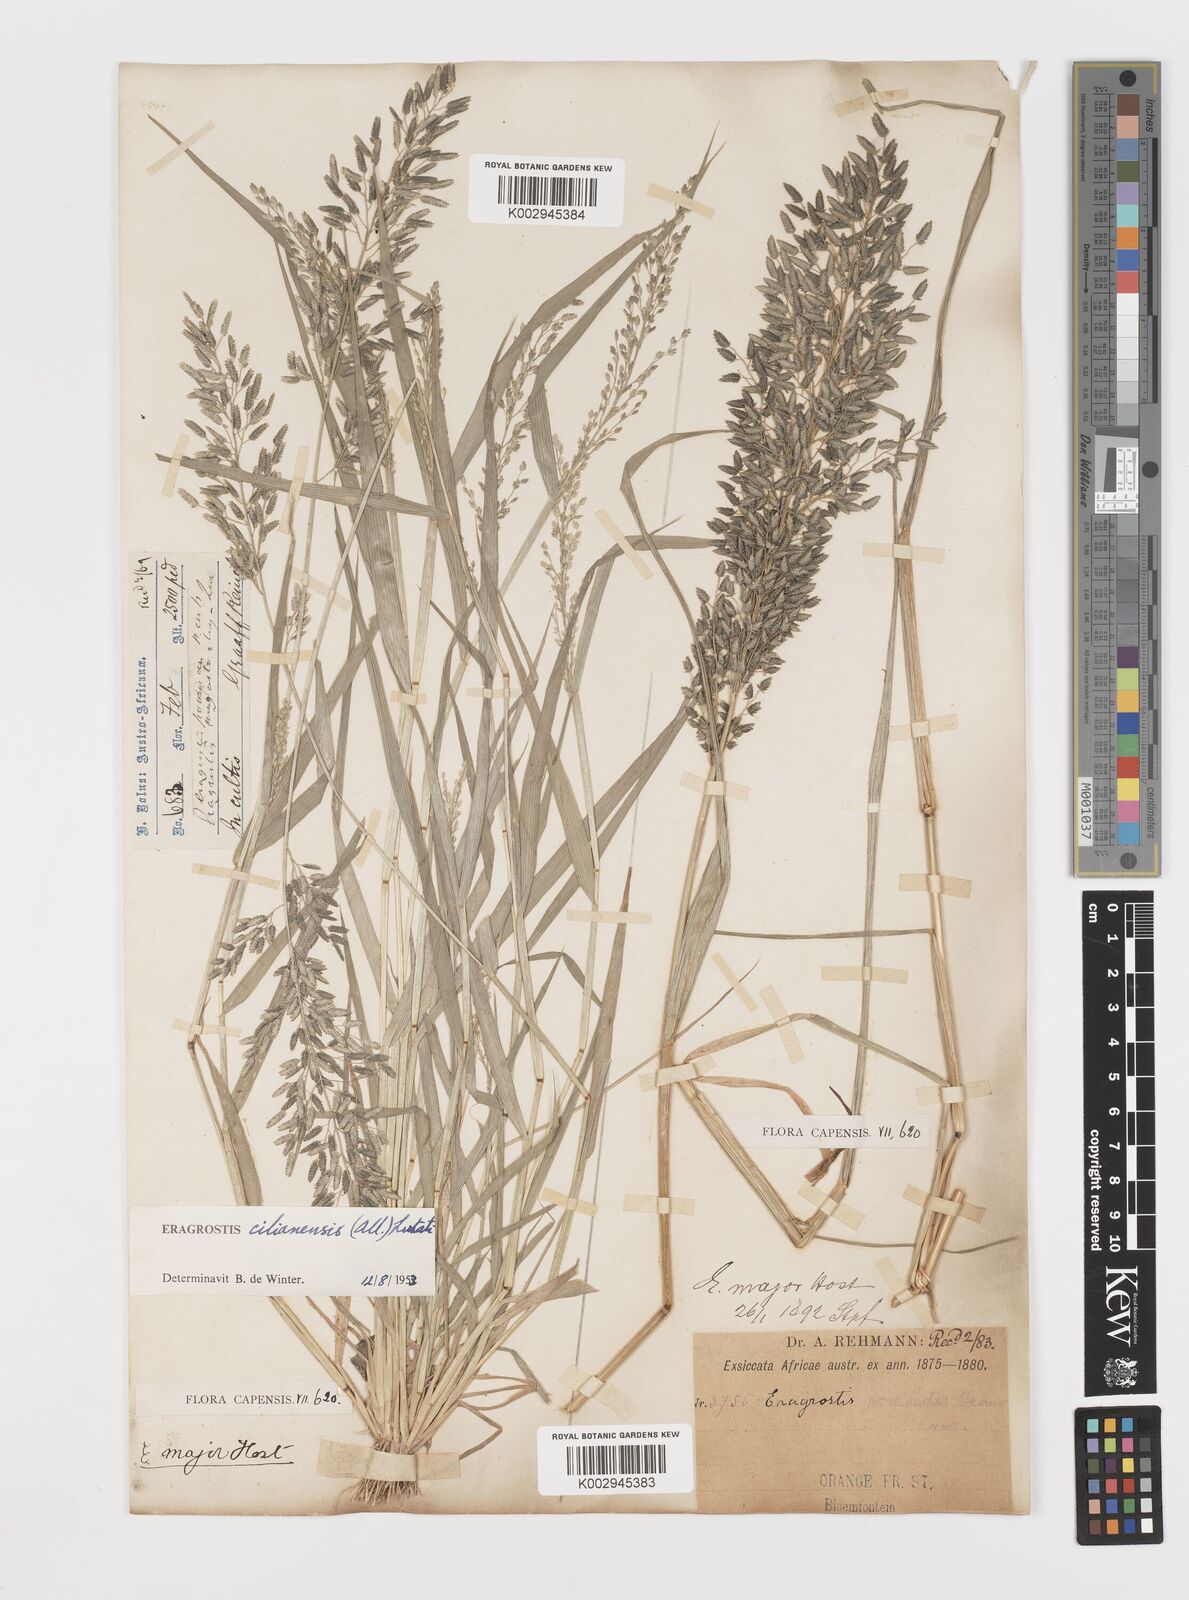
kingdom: Plantae
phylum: Tracheophyta
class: Liliopsida
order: Poales
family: Poaceae
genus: Eragrostis
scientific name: Eragrostis cilianensis
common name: Stinkgrass
